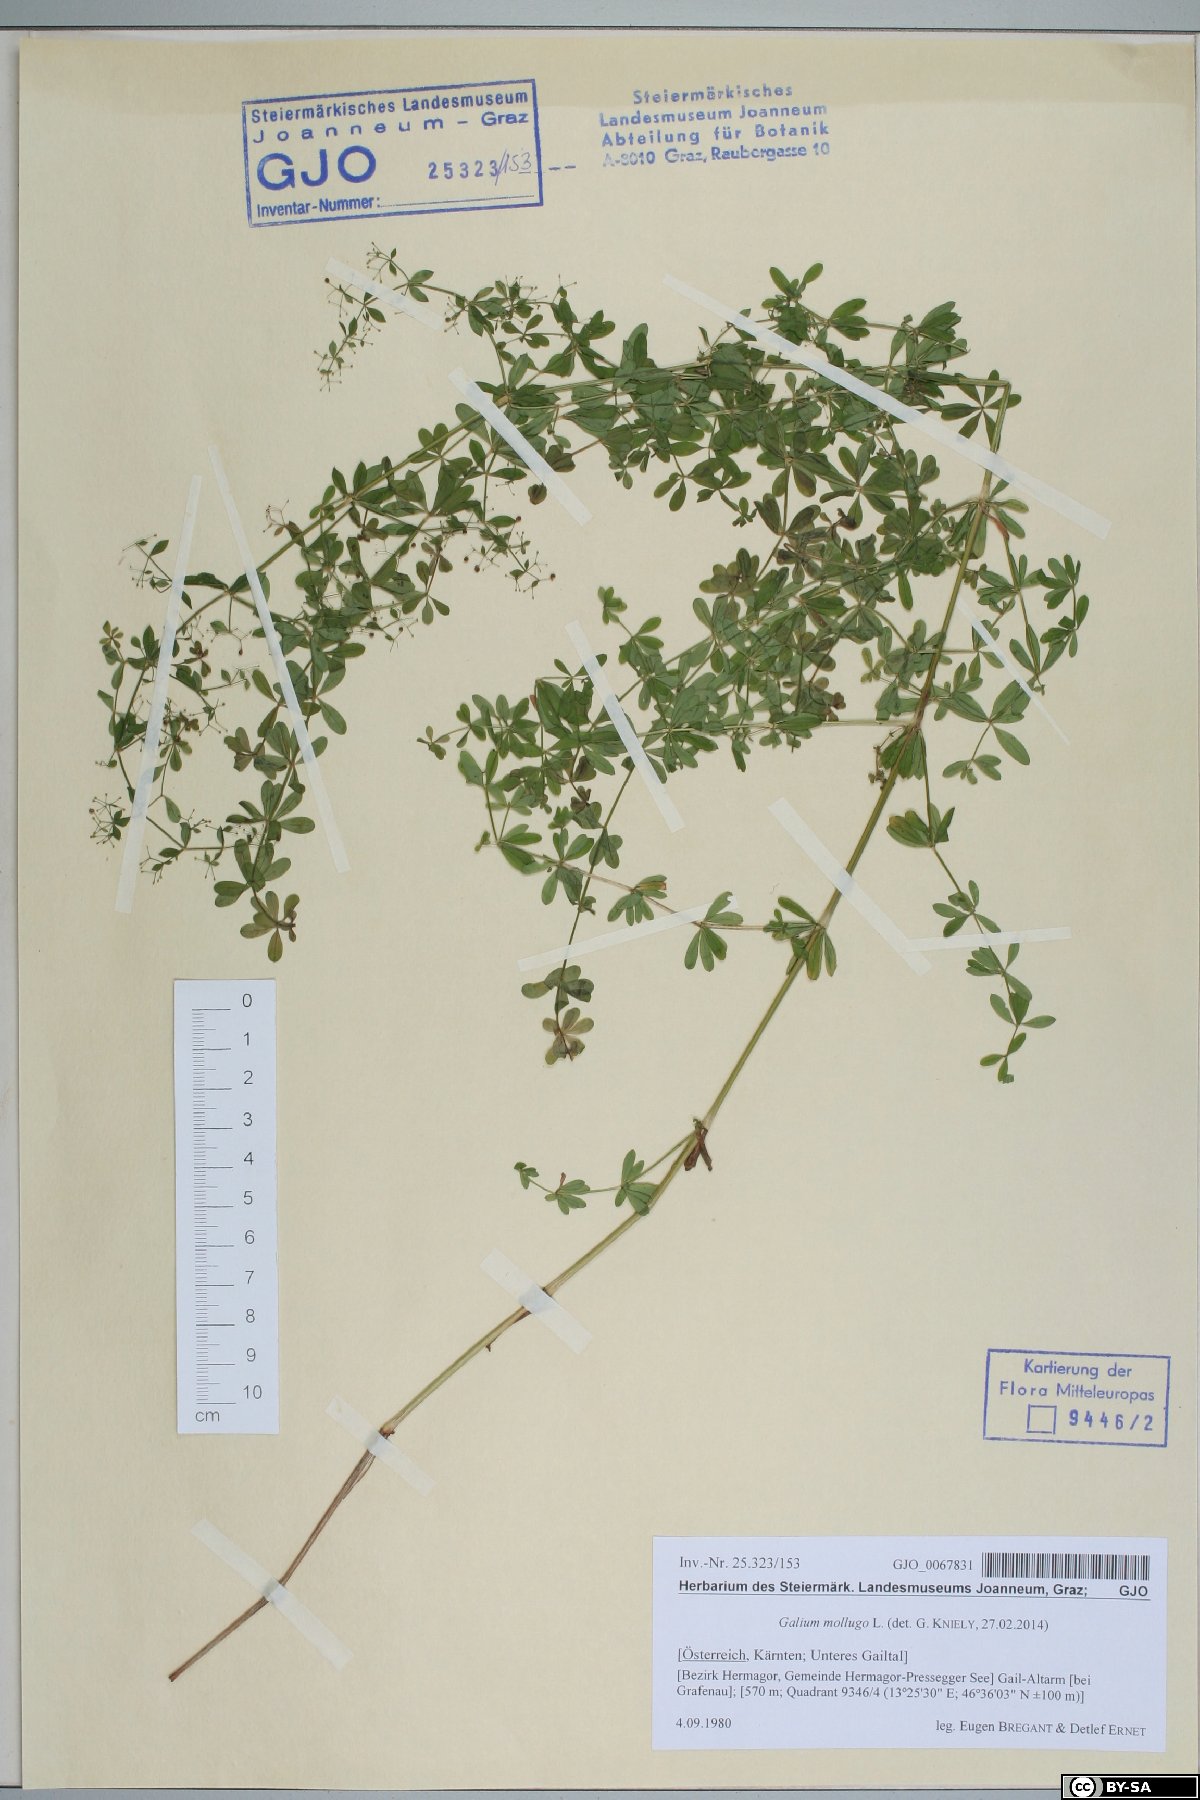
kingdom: Plantae
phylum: Tracheophyta
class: Magnoliopsida
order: Gentianales
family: Rubiaceae
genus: Galium
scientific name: Galium mollugo
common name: Hedge bedstraw
